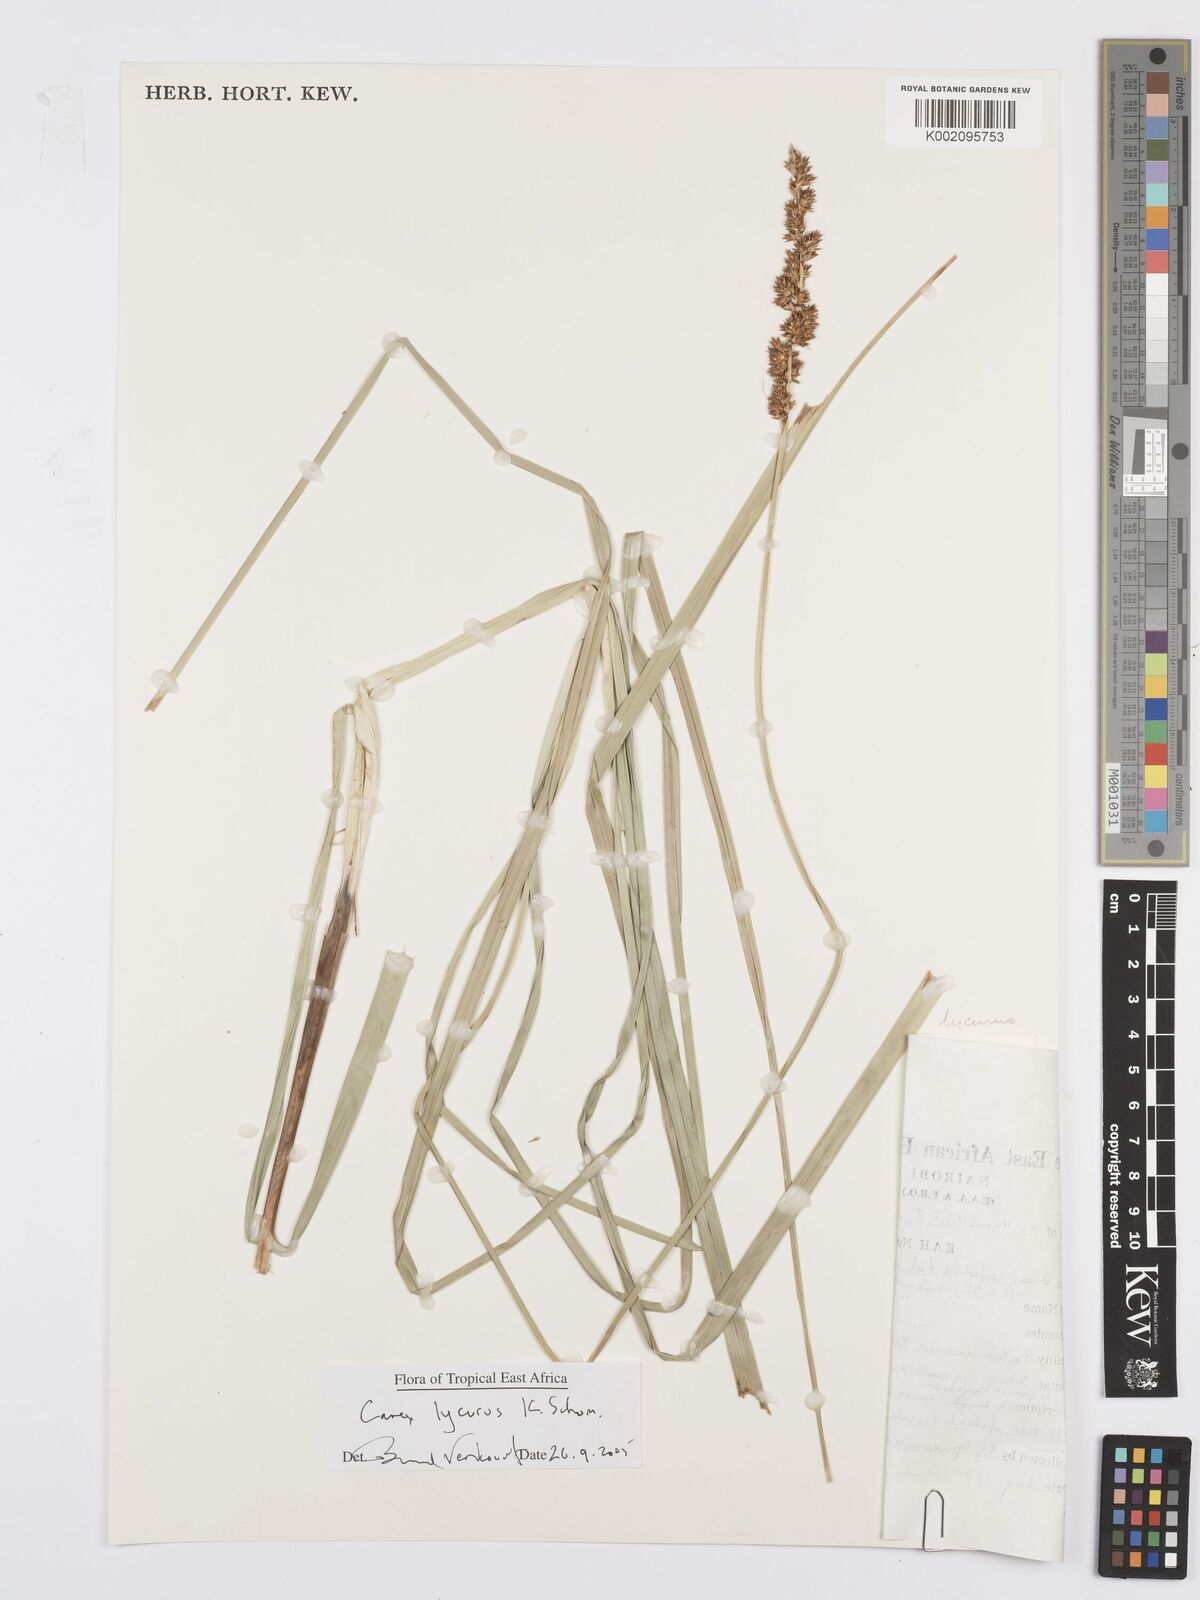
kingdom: Plantae
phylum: Tracheophyta
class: Liliopsida
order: Poales
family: Cyperaceae
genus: Carex
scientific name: Carex lycurus
